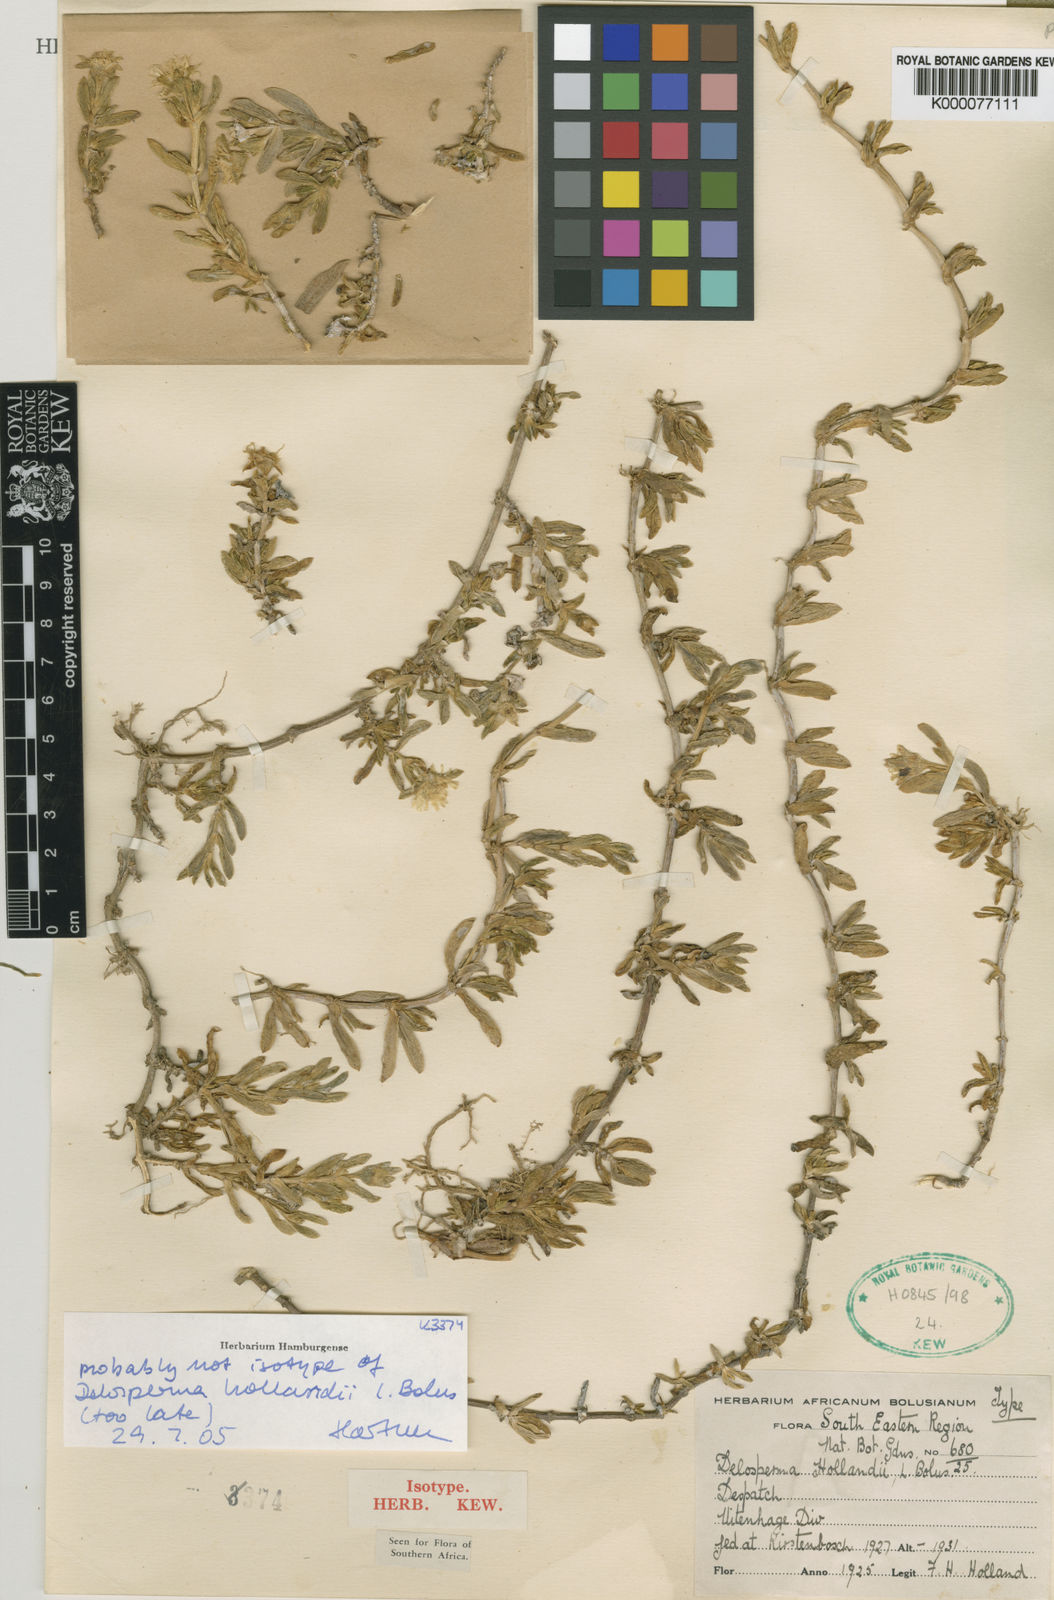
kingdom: Plantae
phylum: Tracheophyta
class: Magnoliopsida
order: Caryophyllales
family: Aizoaceae
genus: Delosperma
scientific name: Delosperma hollandii
